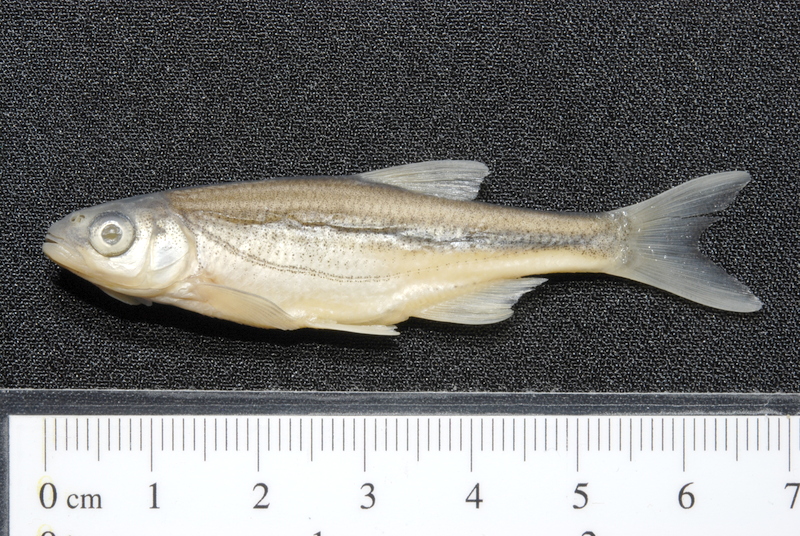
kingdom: Animalia
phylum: Chordata
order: Cypriniformes
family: Cyprinidae
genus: Alburnoides
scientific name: Alburnoides bipunctatus
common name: Spirlin
